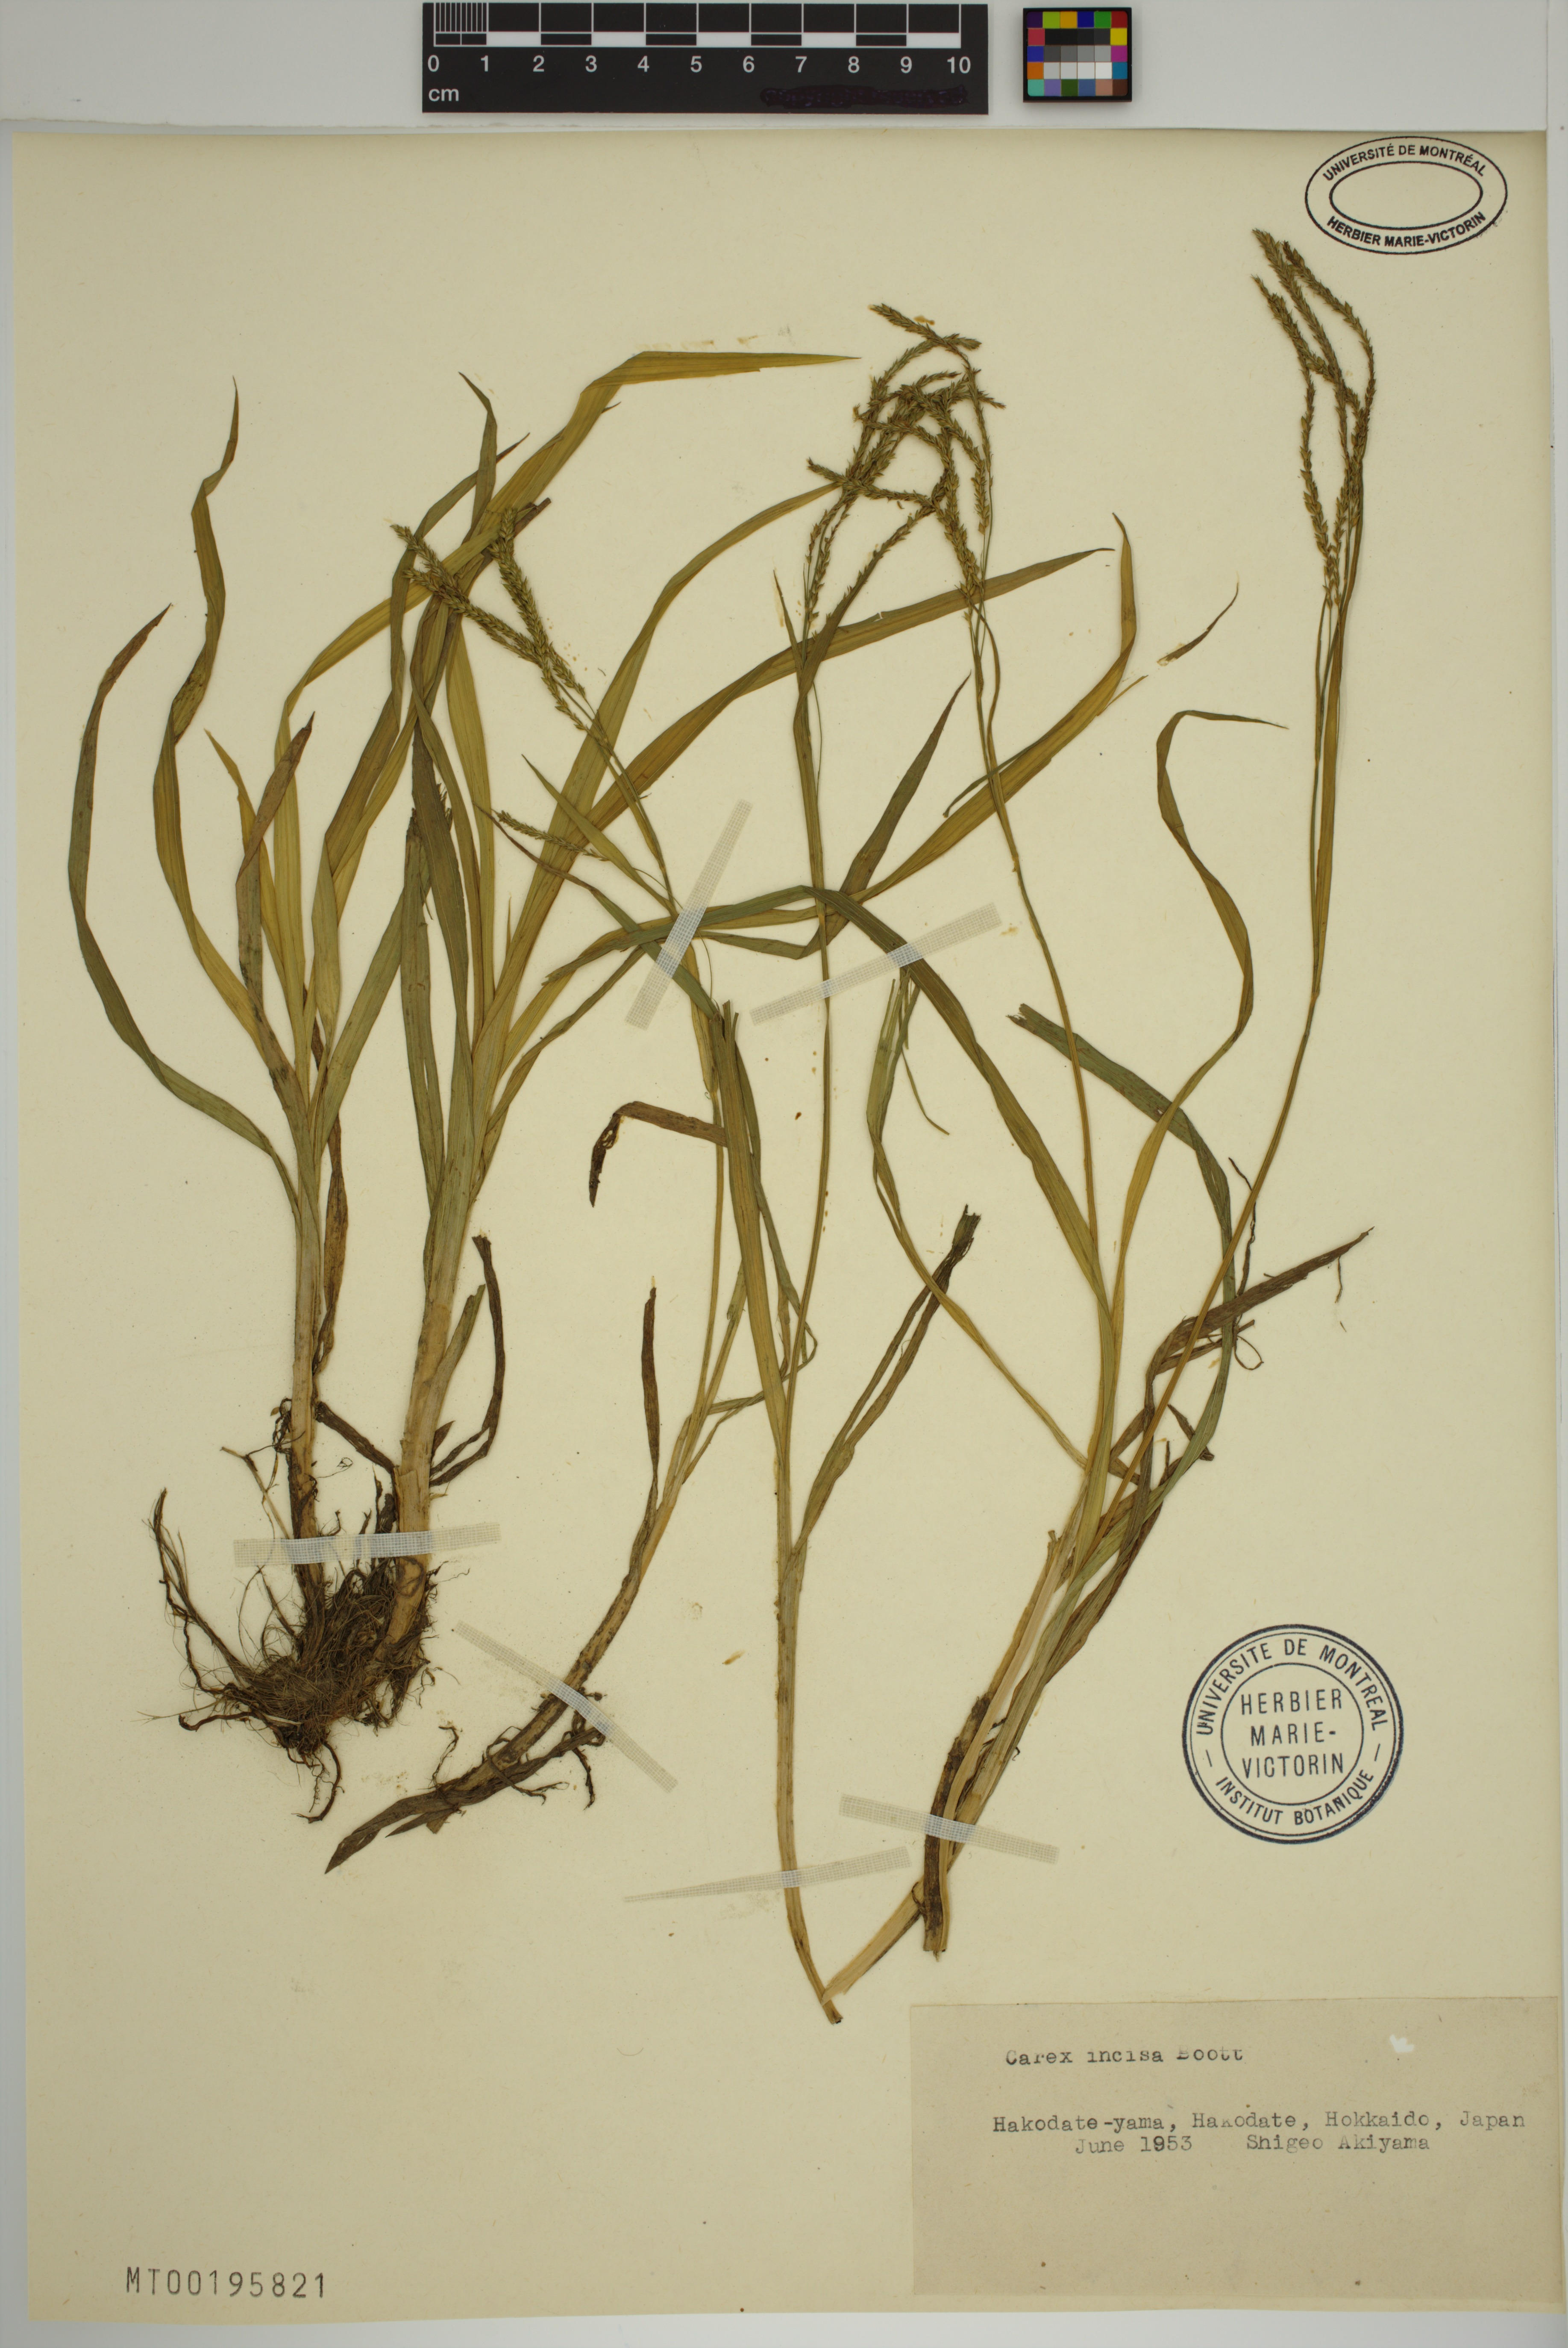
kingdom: Plantae
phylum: Tracheophyta
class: Liliopsida
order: Poales
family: Cyperaceae
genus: Carex
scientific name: Carex incisa
